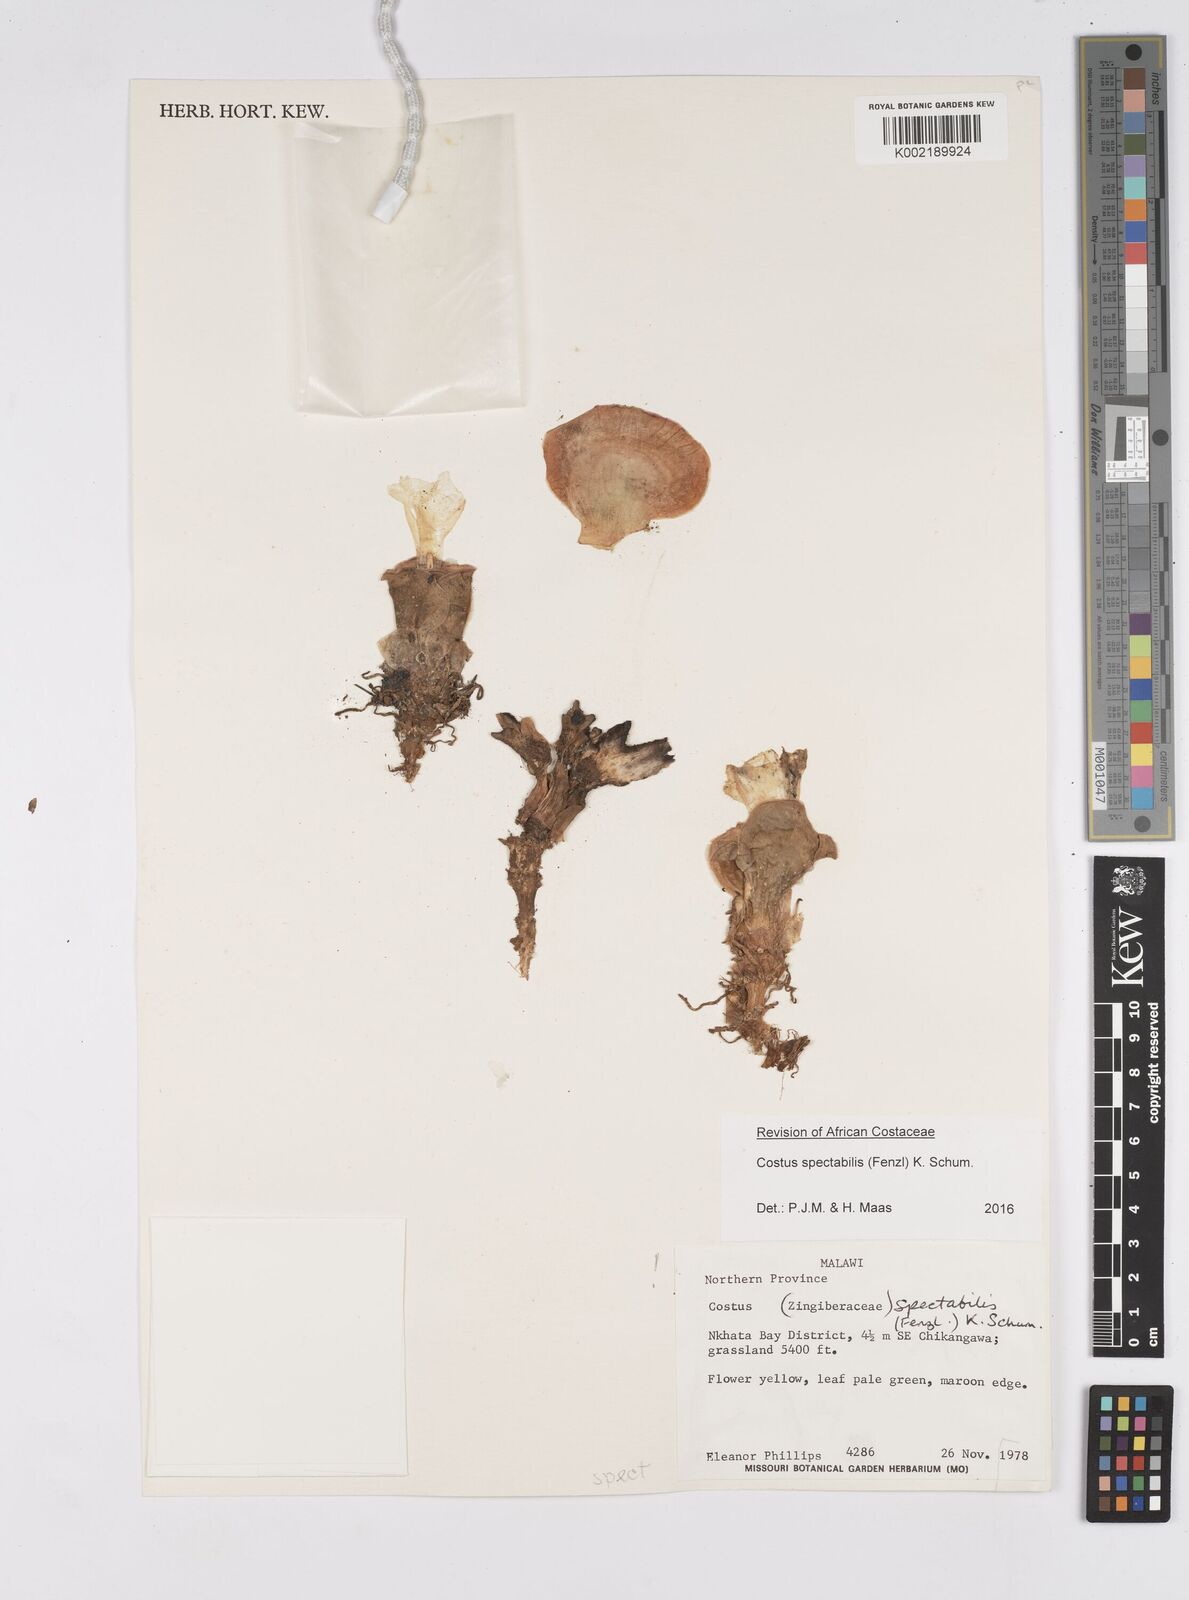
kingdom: Plantae
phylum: Tracheophyta
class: Liliopsida
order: Zingiberales
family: Costaceae
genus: Costus
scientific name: Costus spectabilis
